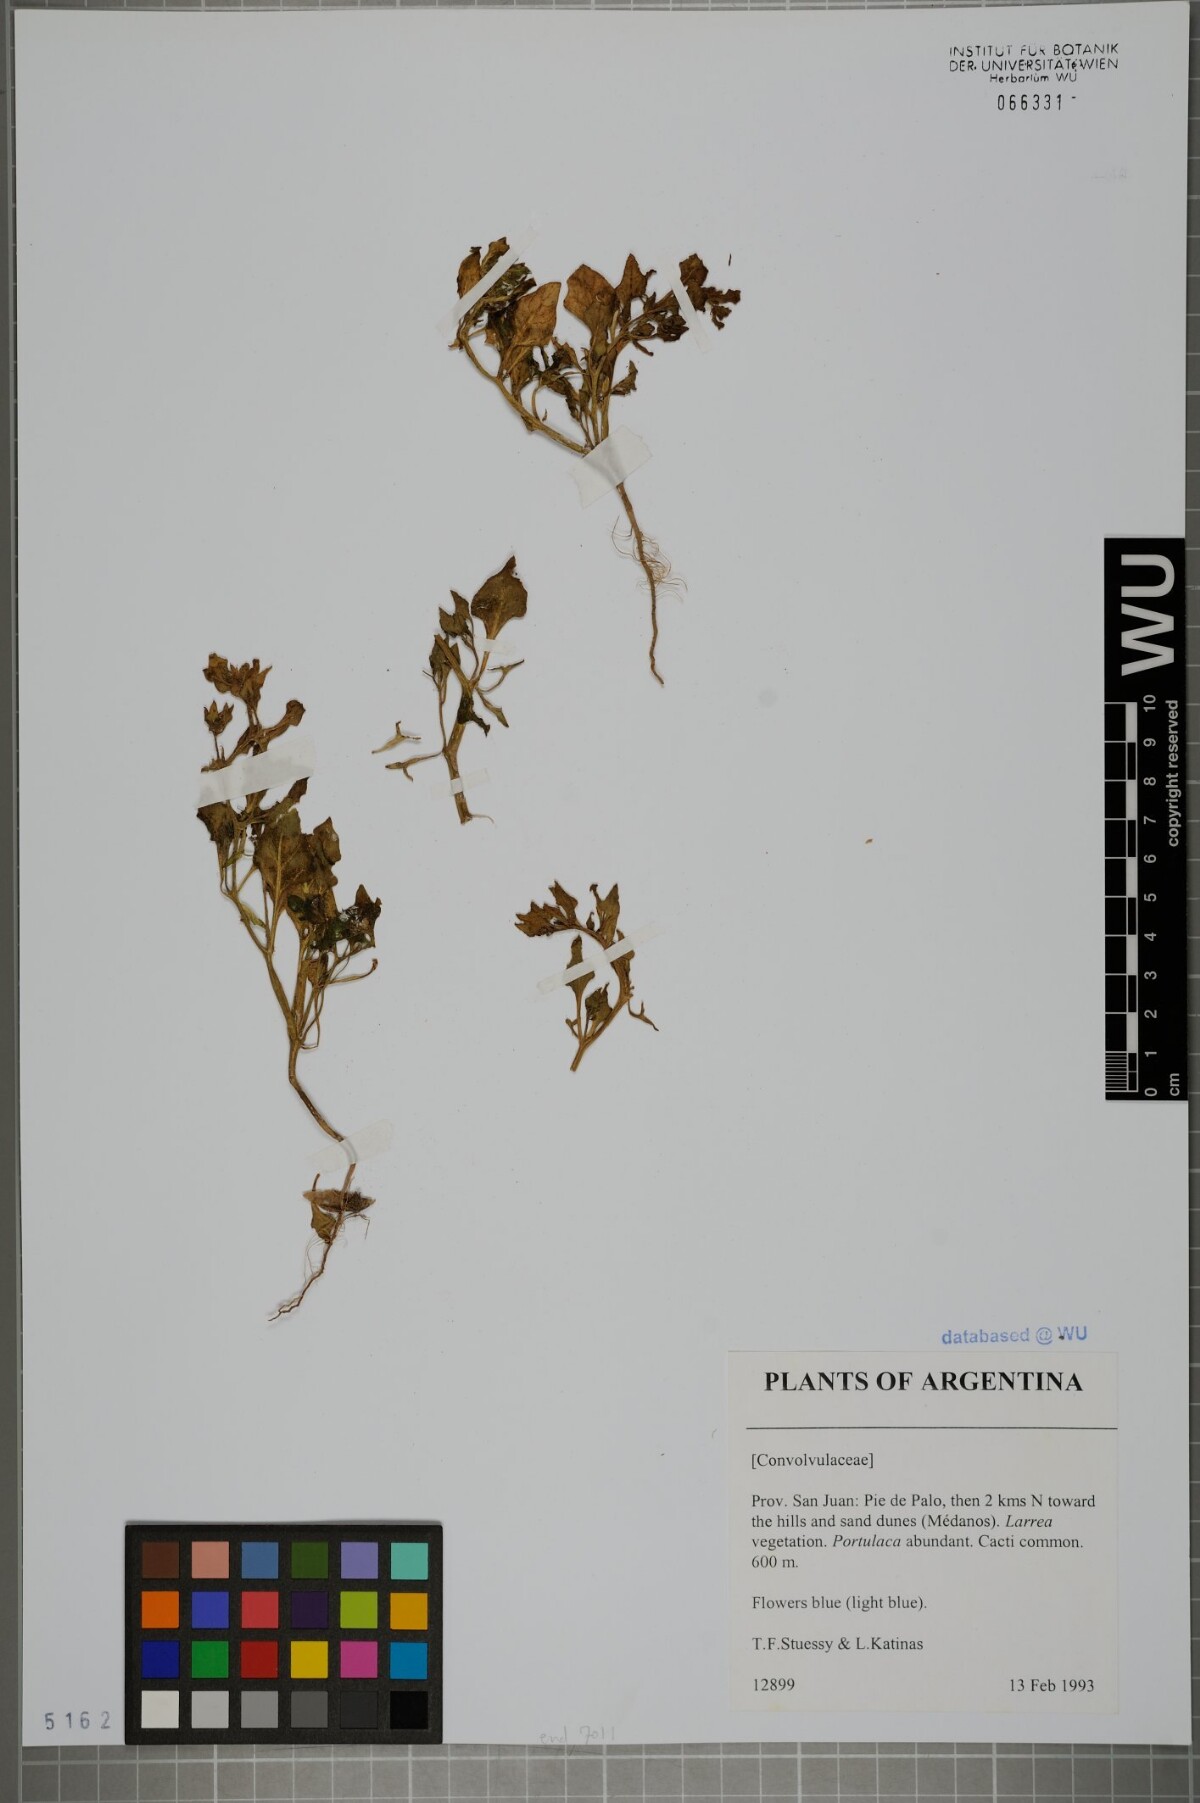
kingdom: Plantae
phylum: Tracheophyta
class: Magnoliopsida
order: Solanales
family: Convolvulaceae
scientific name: Convolvulaceae
